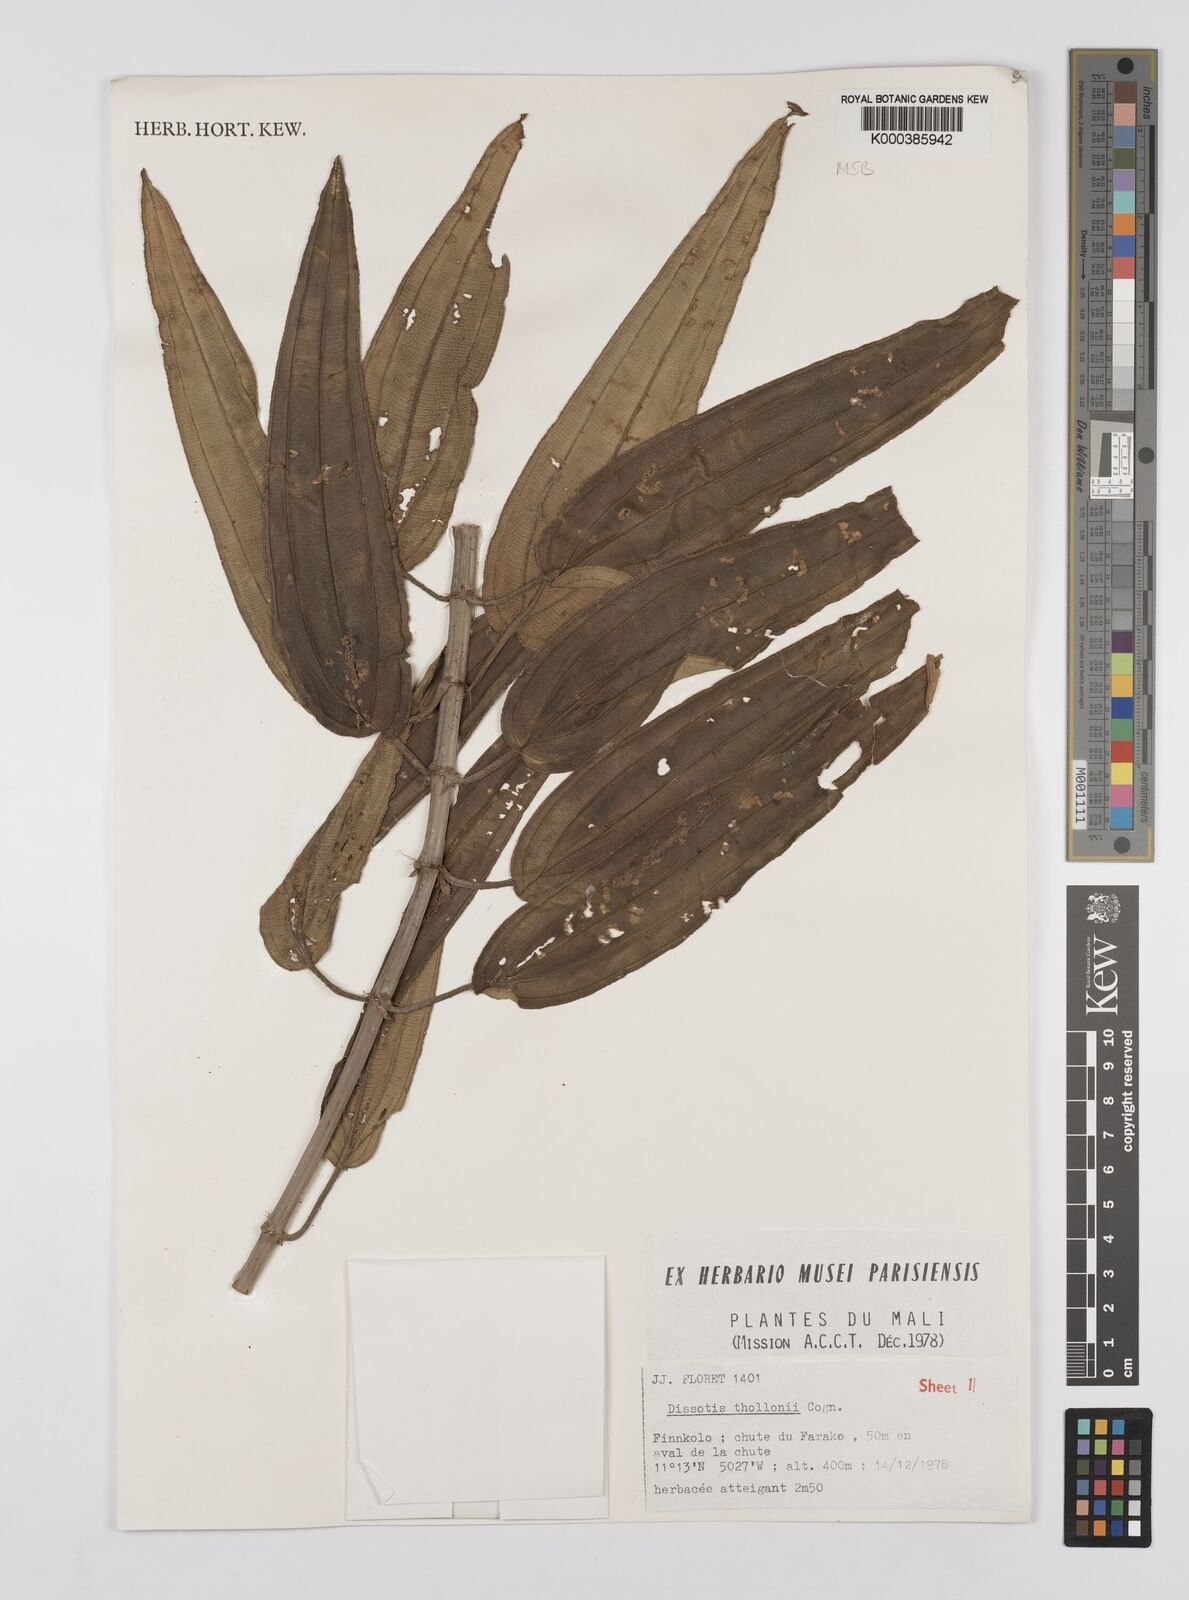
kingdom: Plantae
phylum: Tracheophyta
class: Magnoliopsida
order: Myrtales
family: Melastomataceae
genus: Dissotis
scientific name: Dissotis
